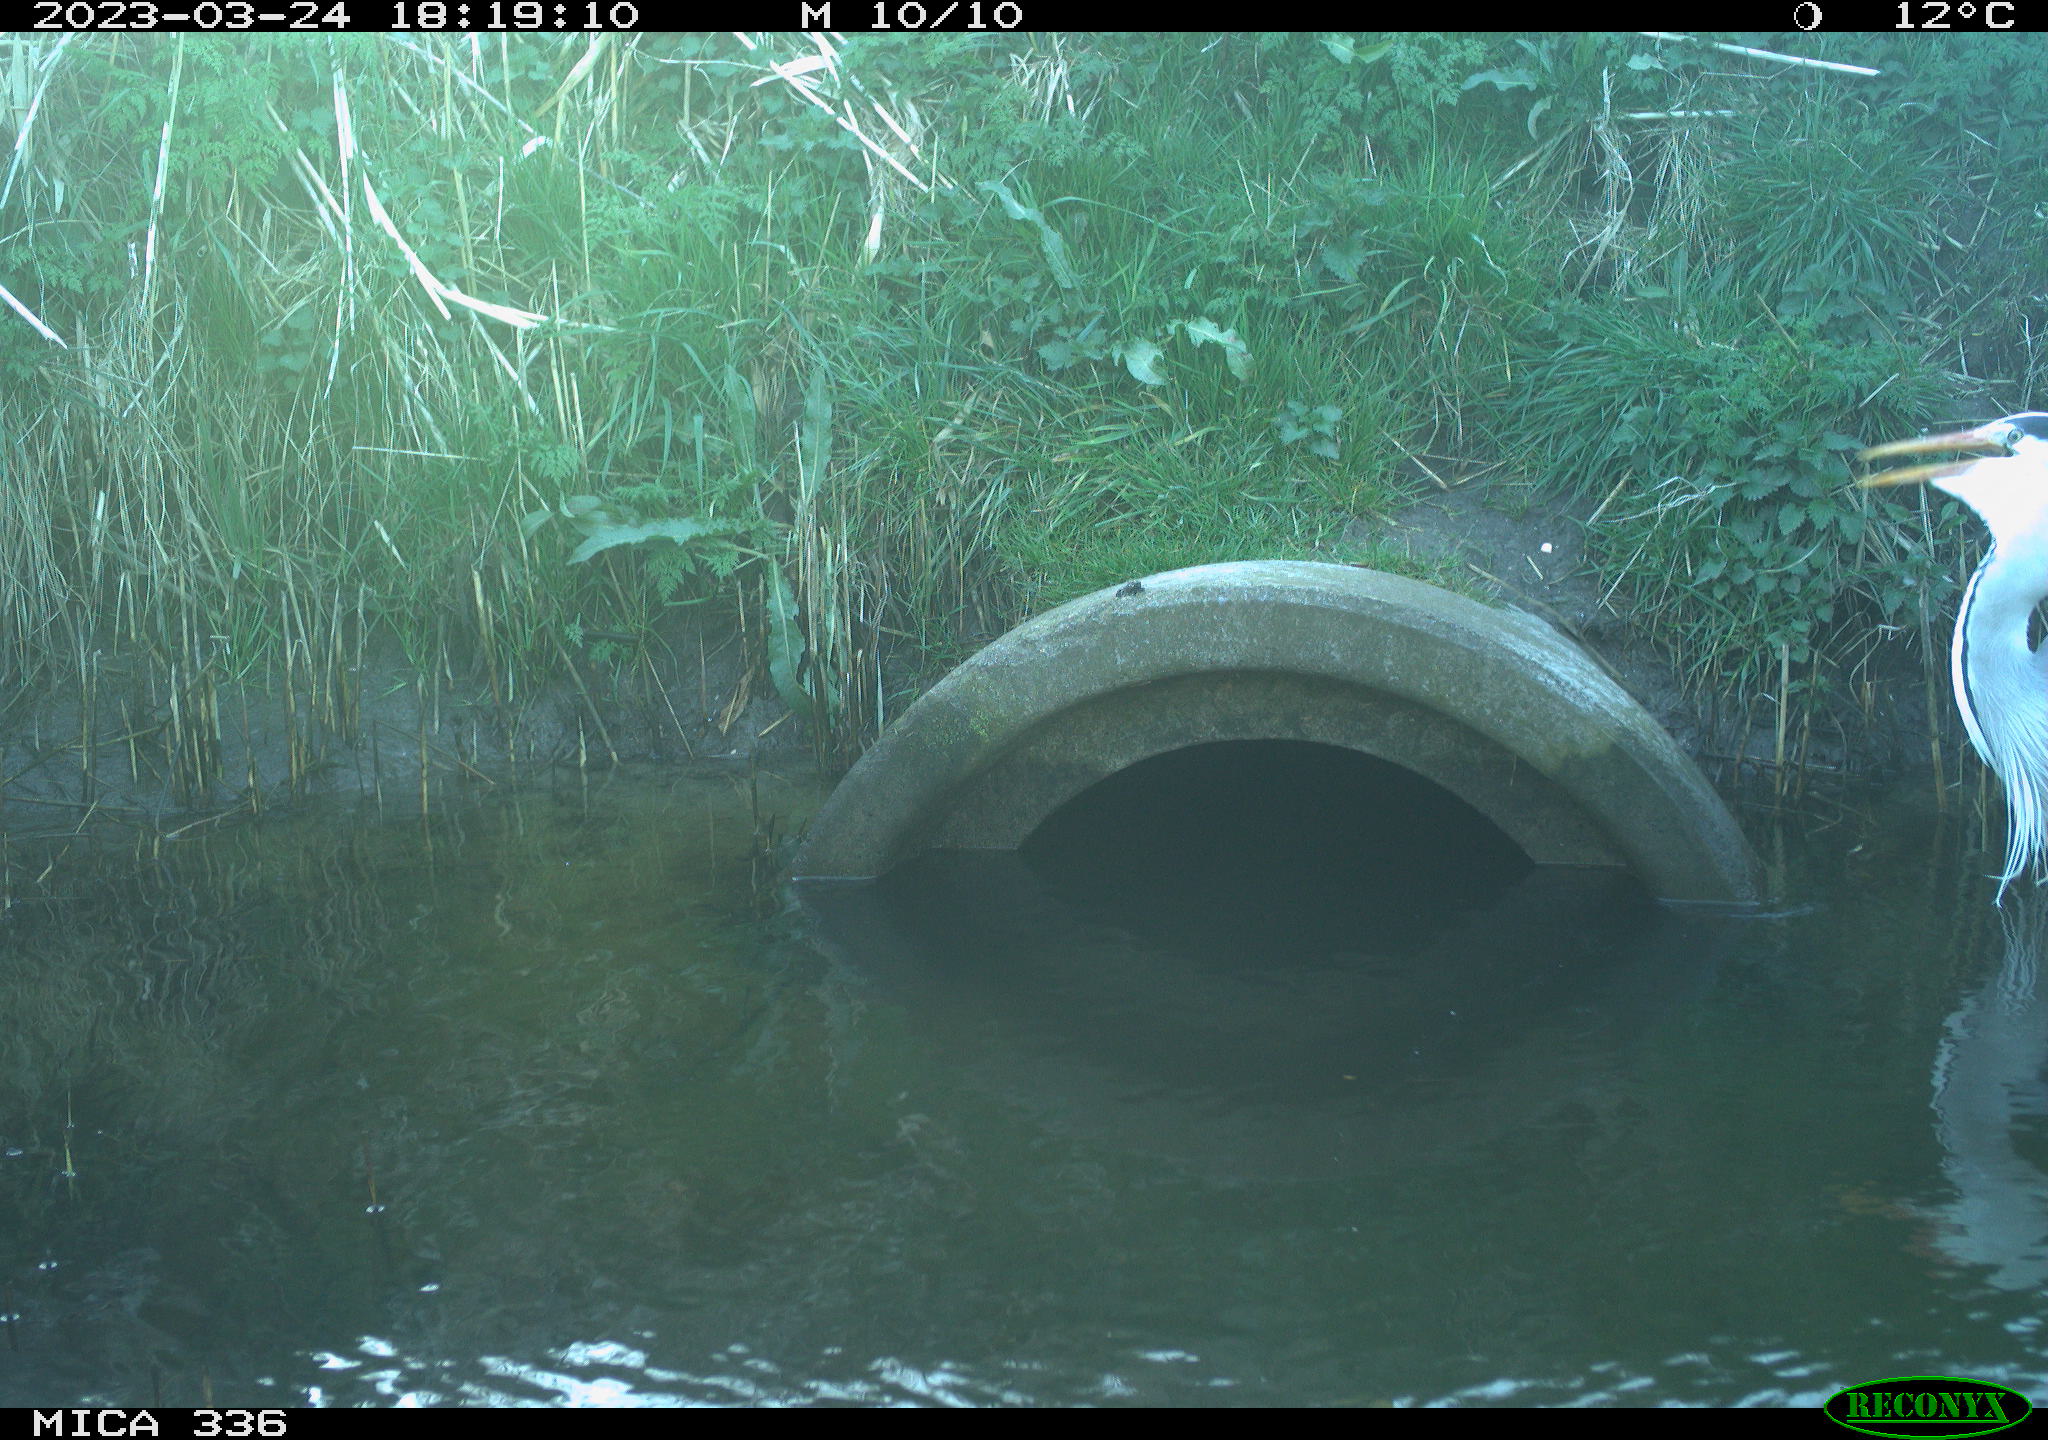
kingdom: Animalia
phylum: Chordata
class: Aves
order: Pelecaniformes
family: Ardeidae
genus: Ardea
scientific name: Ardea
